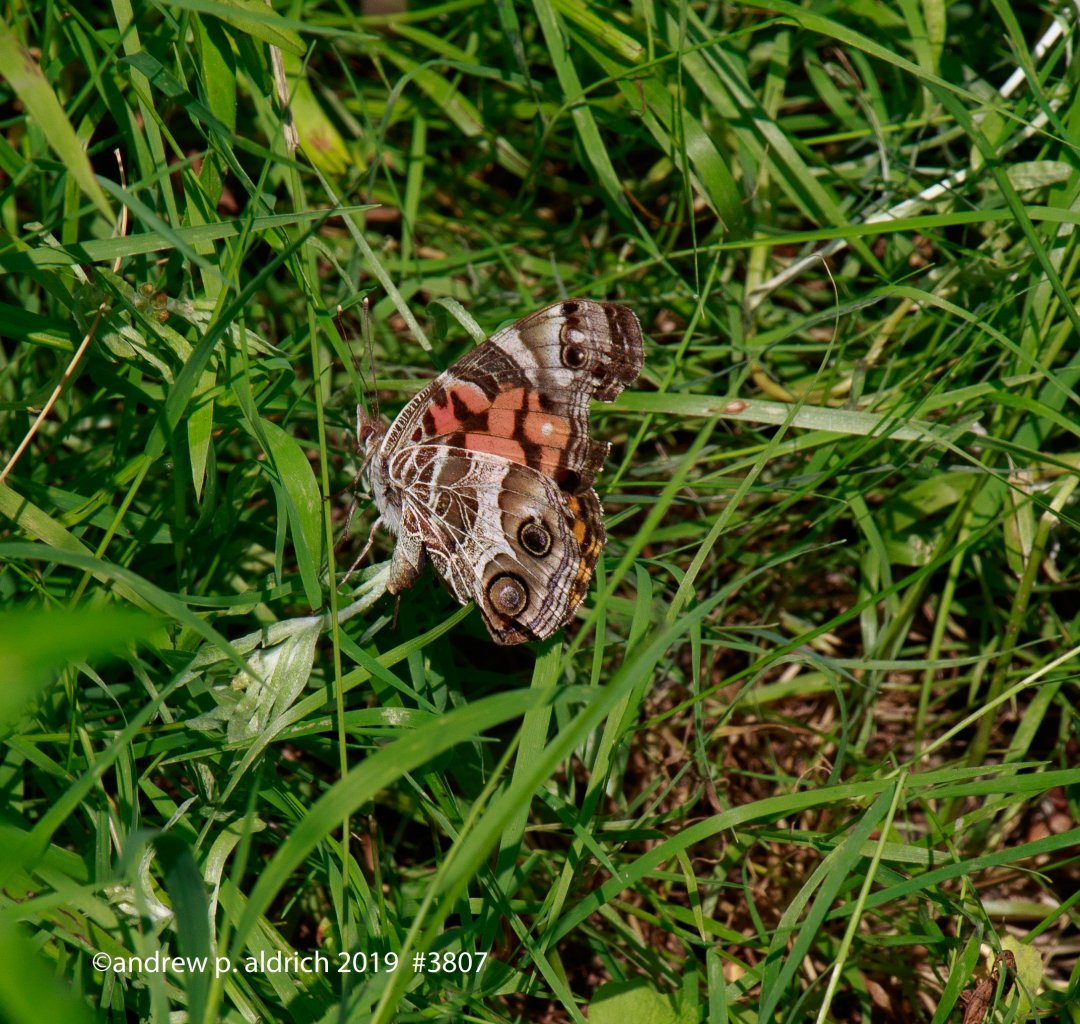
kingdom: Animalia
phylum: Arthropoda
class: Insecta
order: Lepidoptera
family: Nymphalidae
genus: Vanessa
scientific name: Vanessa virginiensis
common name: American Lady
